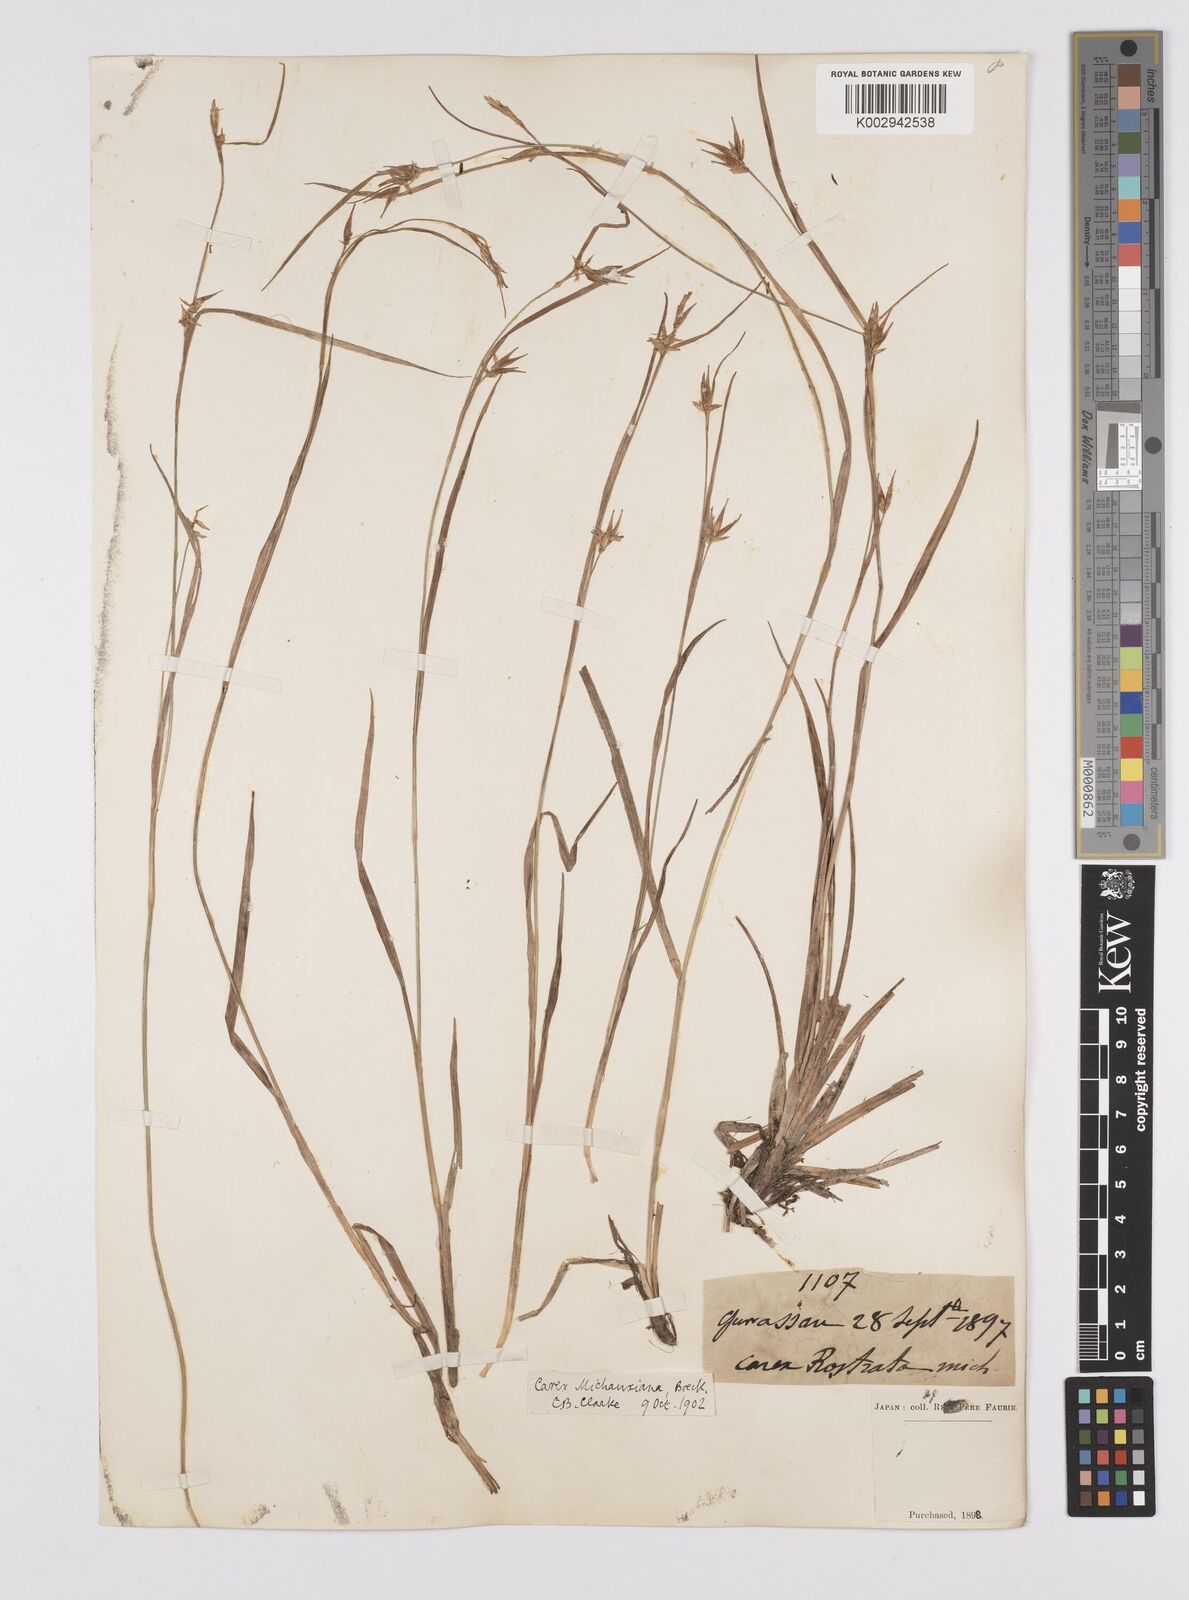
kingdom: Plantae
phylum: Tracheophyta
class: Liliopsida
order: Poales
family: Cyperaceae
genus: Carex
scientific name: Carex michauxiana
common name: Michaux's sedge
